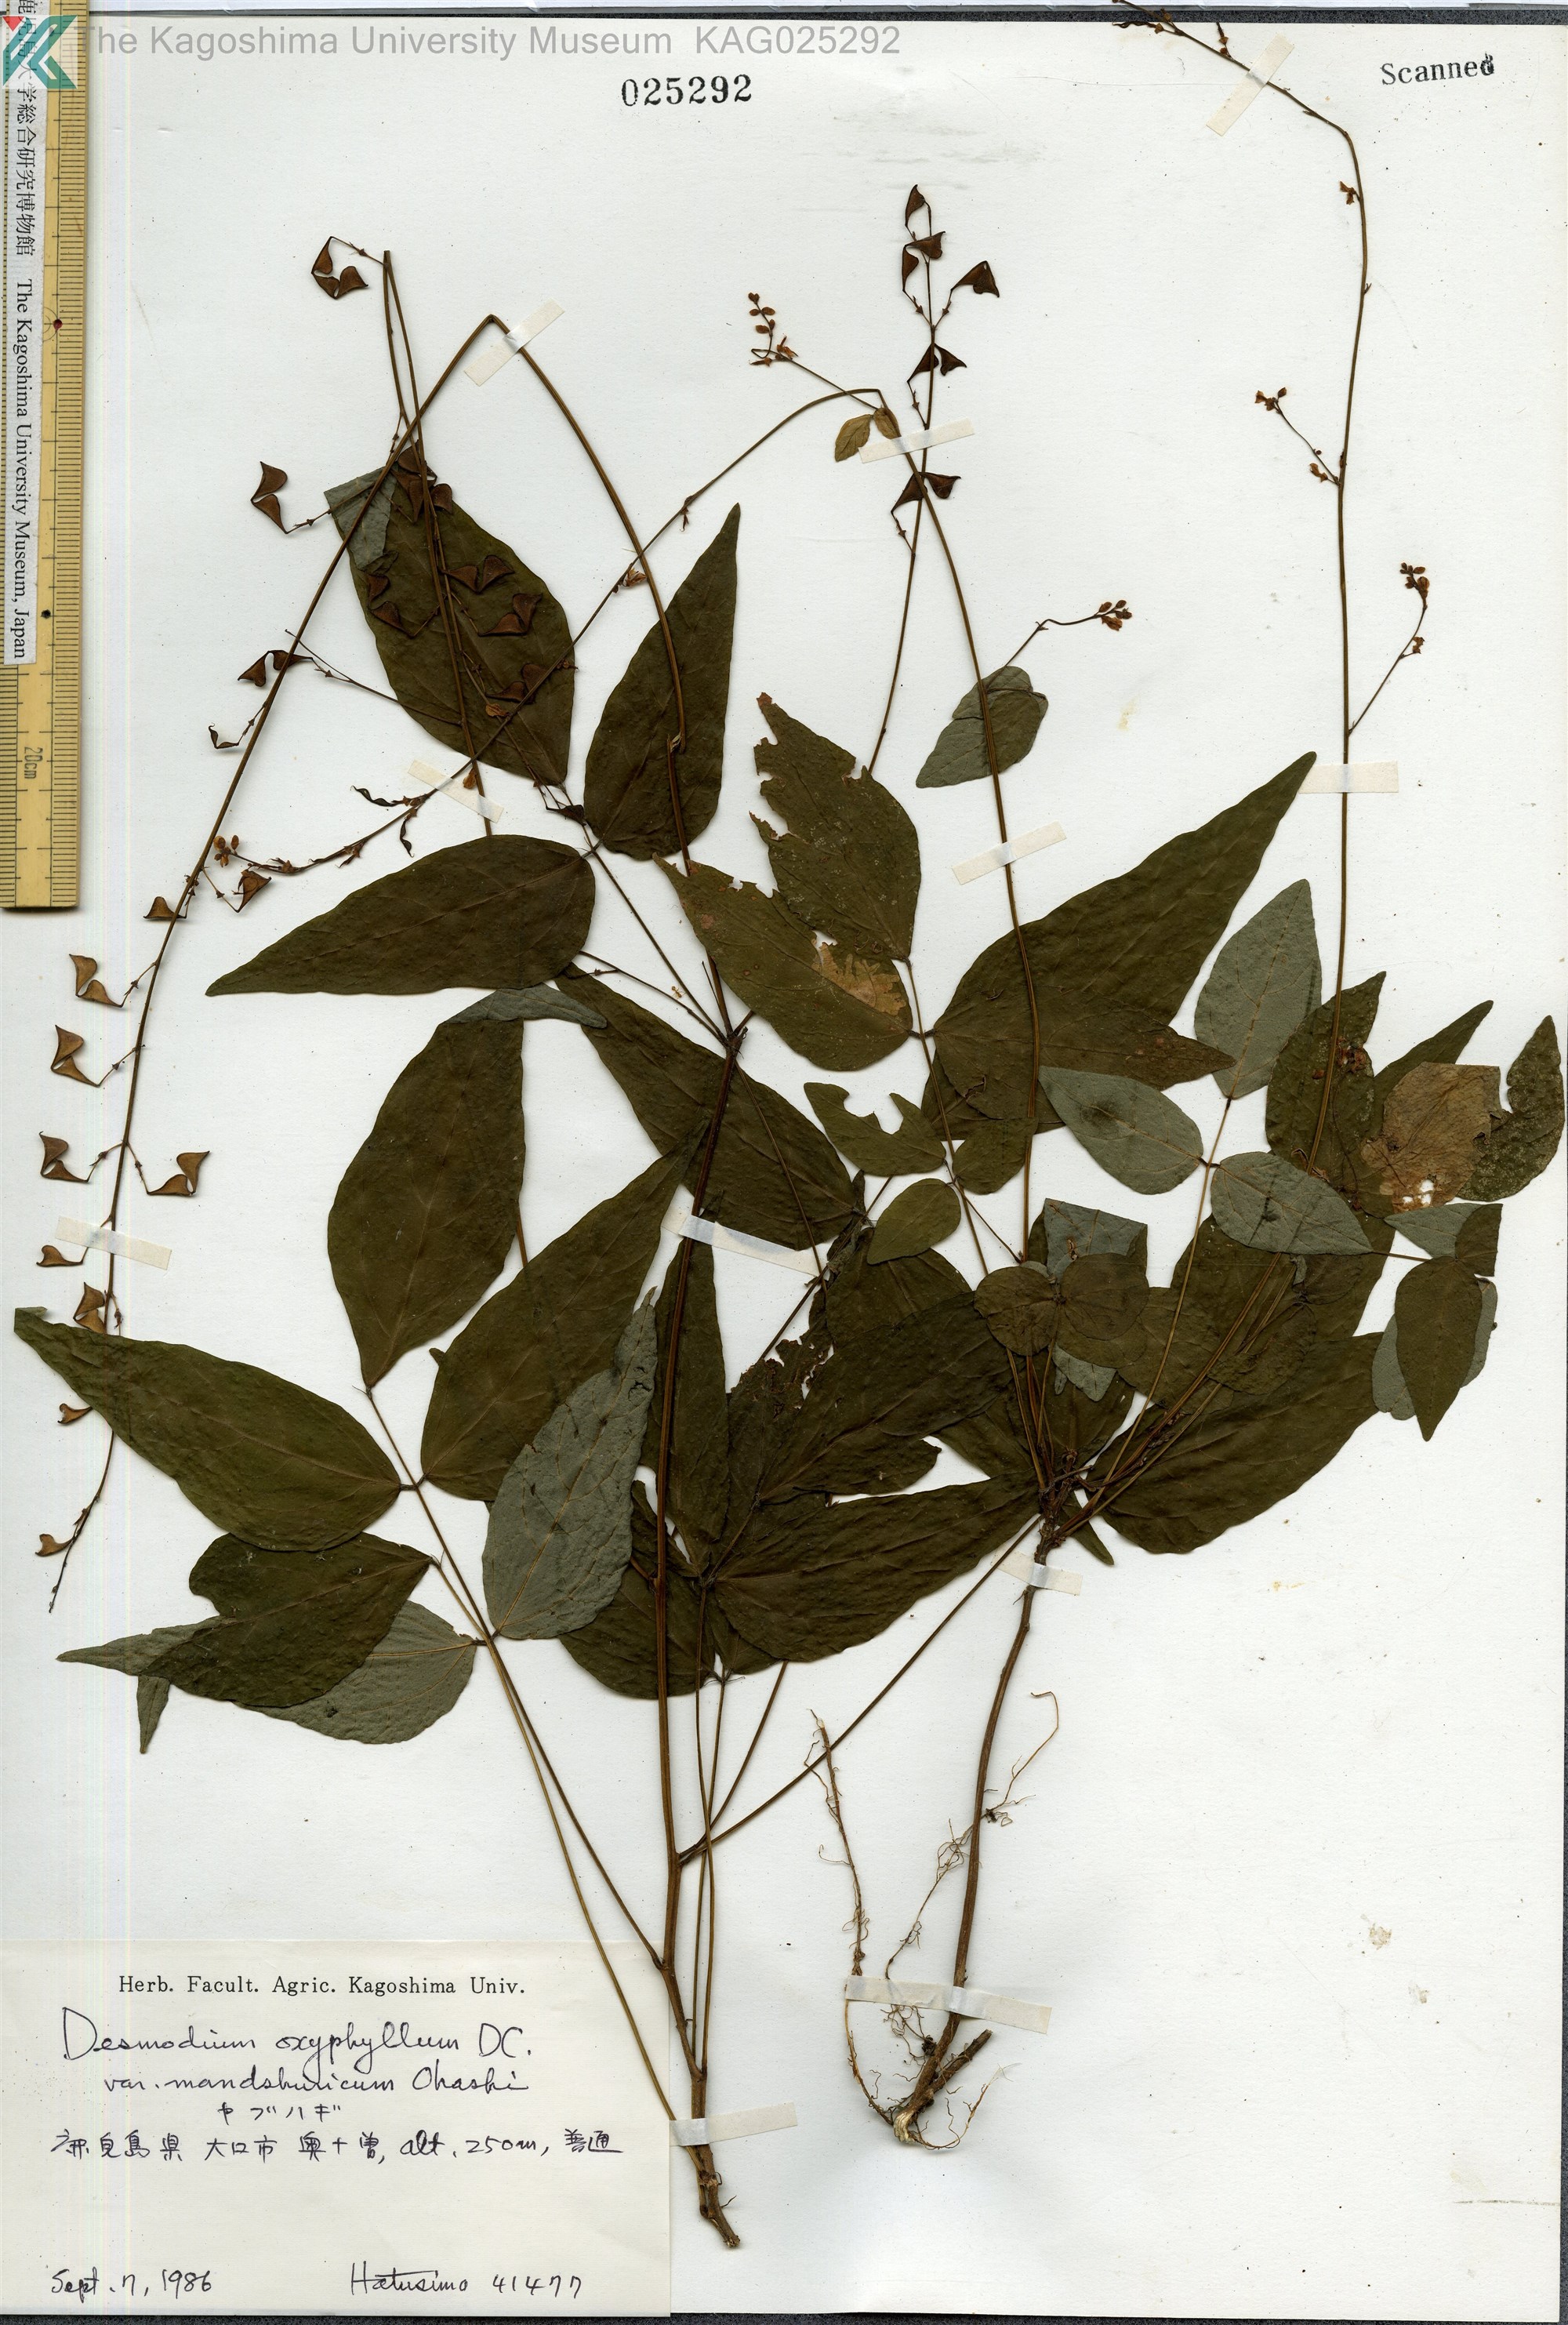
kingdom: Plantae
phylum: Tracheophyta
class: Magnoliopsida
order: Fabales
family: Fabaceae
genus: Hylodesmum
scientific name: Hylodesmum podocarpum
